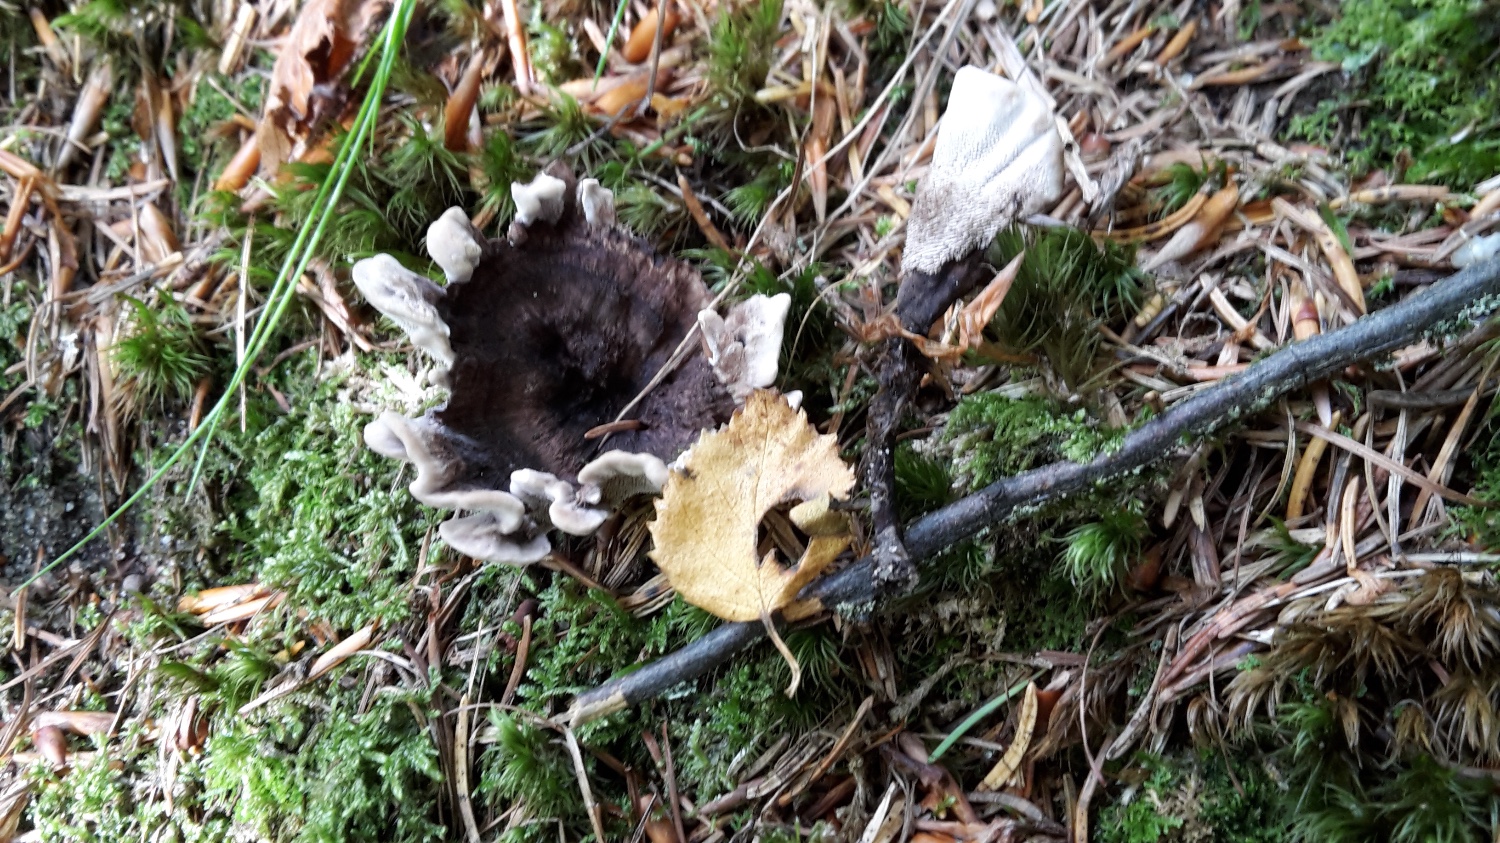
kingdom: Fungi
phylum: Basidiomycota
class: Agaricomycetes
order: Thelephorales
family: Thelephoraceae
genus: Phellodon
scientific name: Phellodon tomentosus
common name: vellugtende duftpigsvamp
